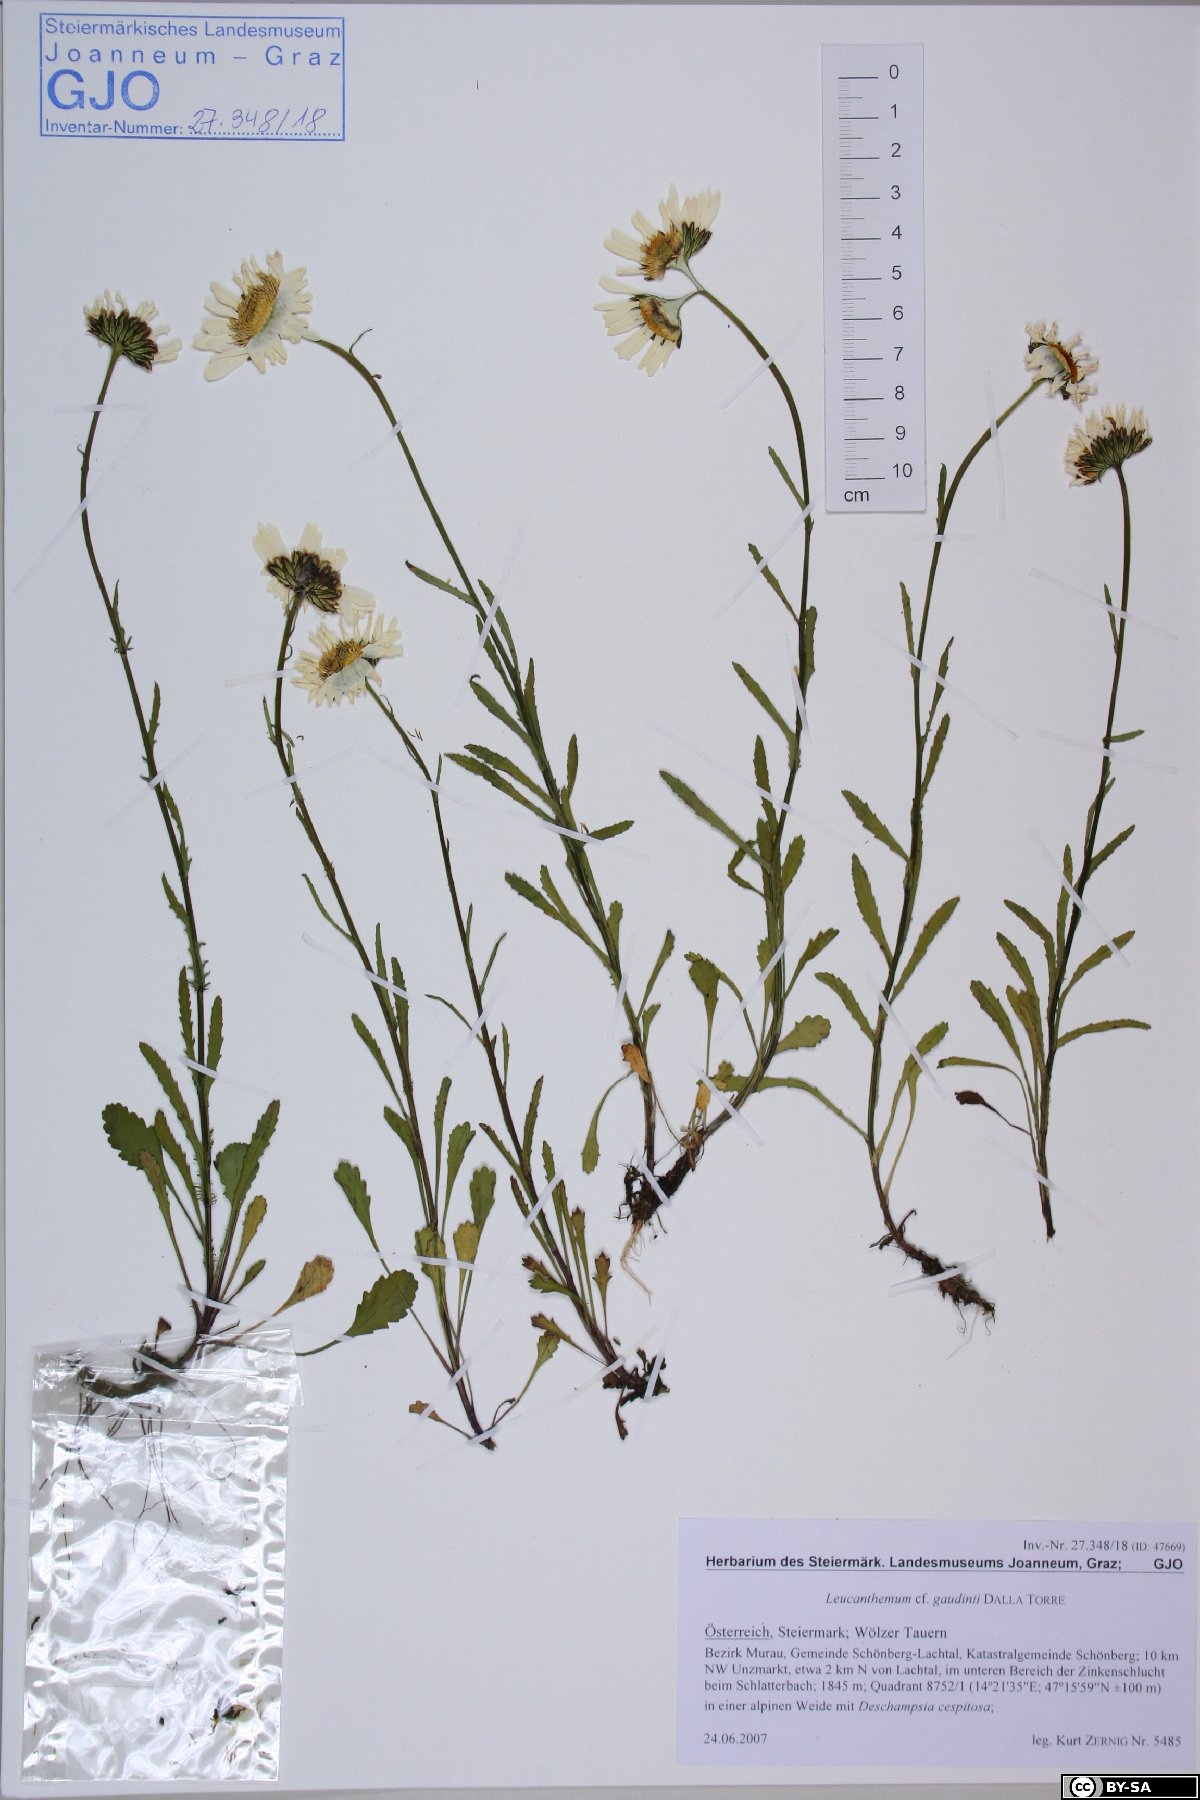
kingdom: Plantae
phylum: Tracheophyta
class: Magnoliopsida
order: Asterales
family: Asteraceae
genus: Leucanthemum
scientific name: Leucanthemum gaudinii
